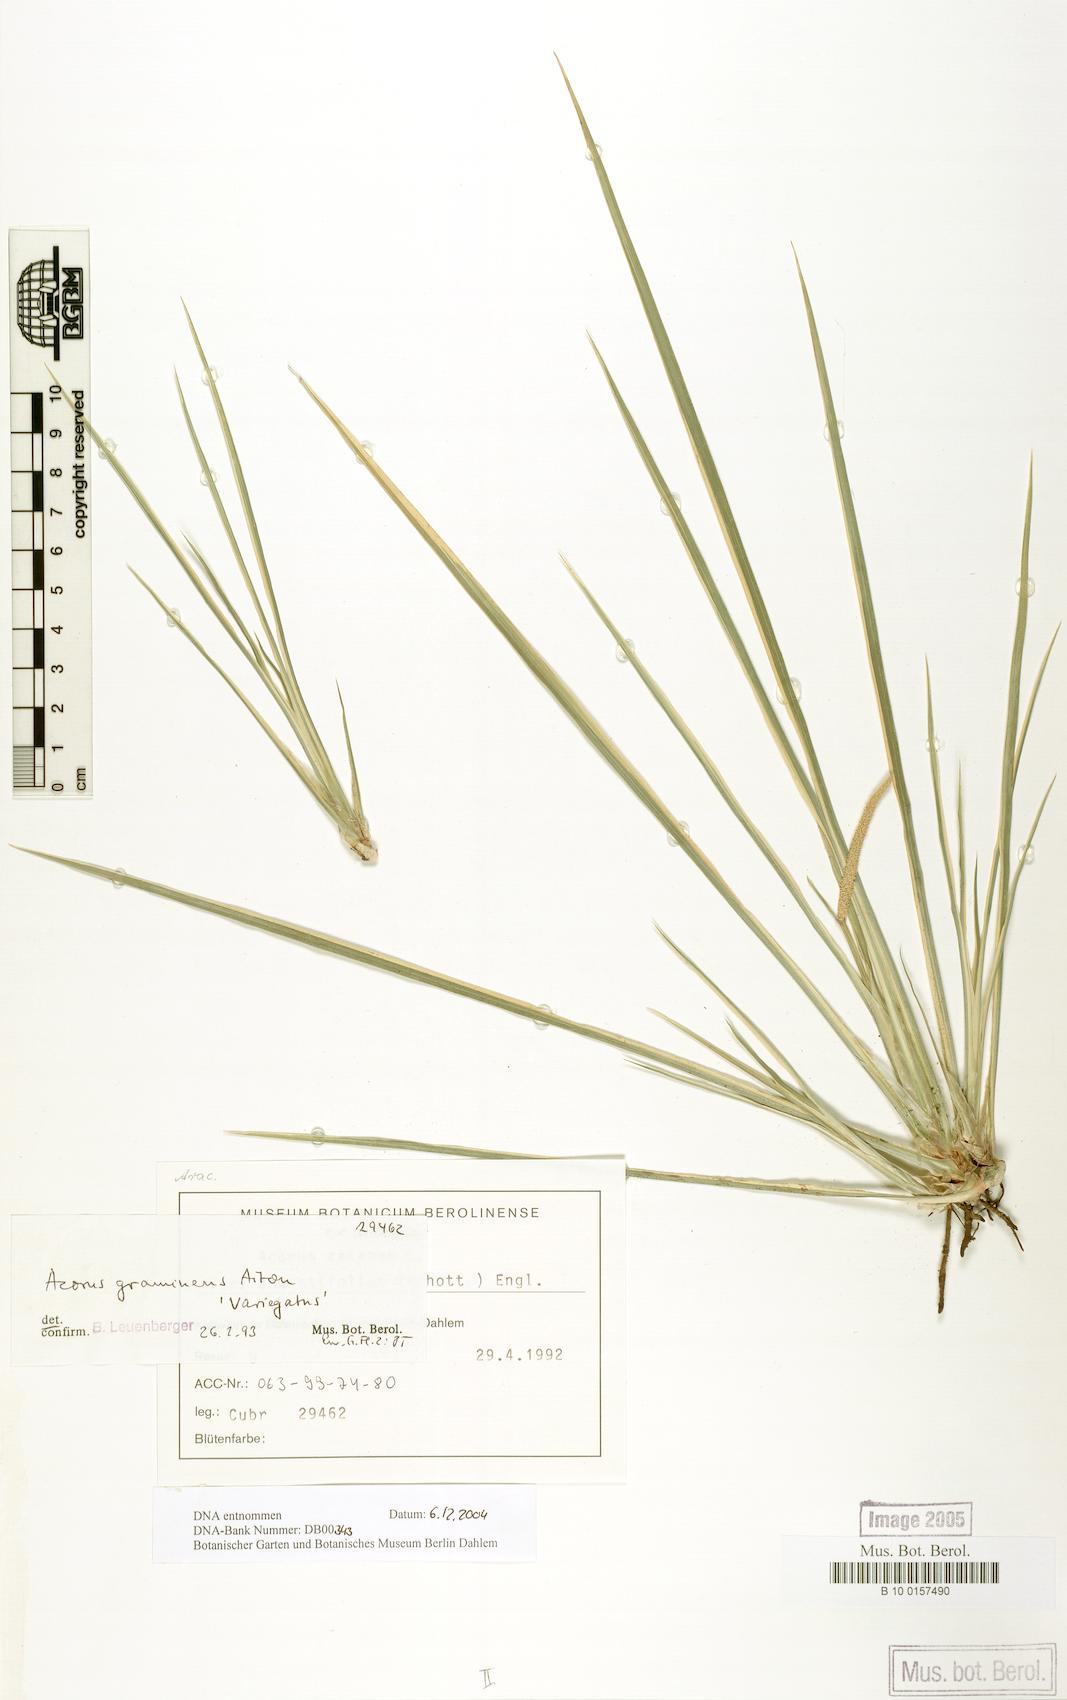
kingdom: Plantae
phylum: Tracheophyta
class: Liliopsida
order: Acorales
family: Acoraceae
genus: Acorus
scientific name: Acorus gramineus
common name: Slender sweet-flag
